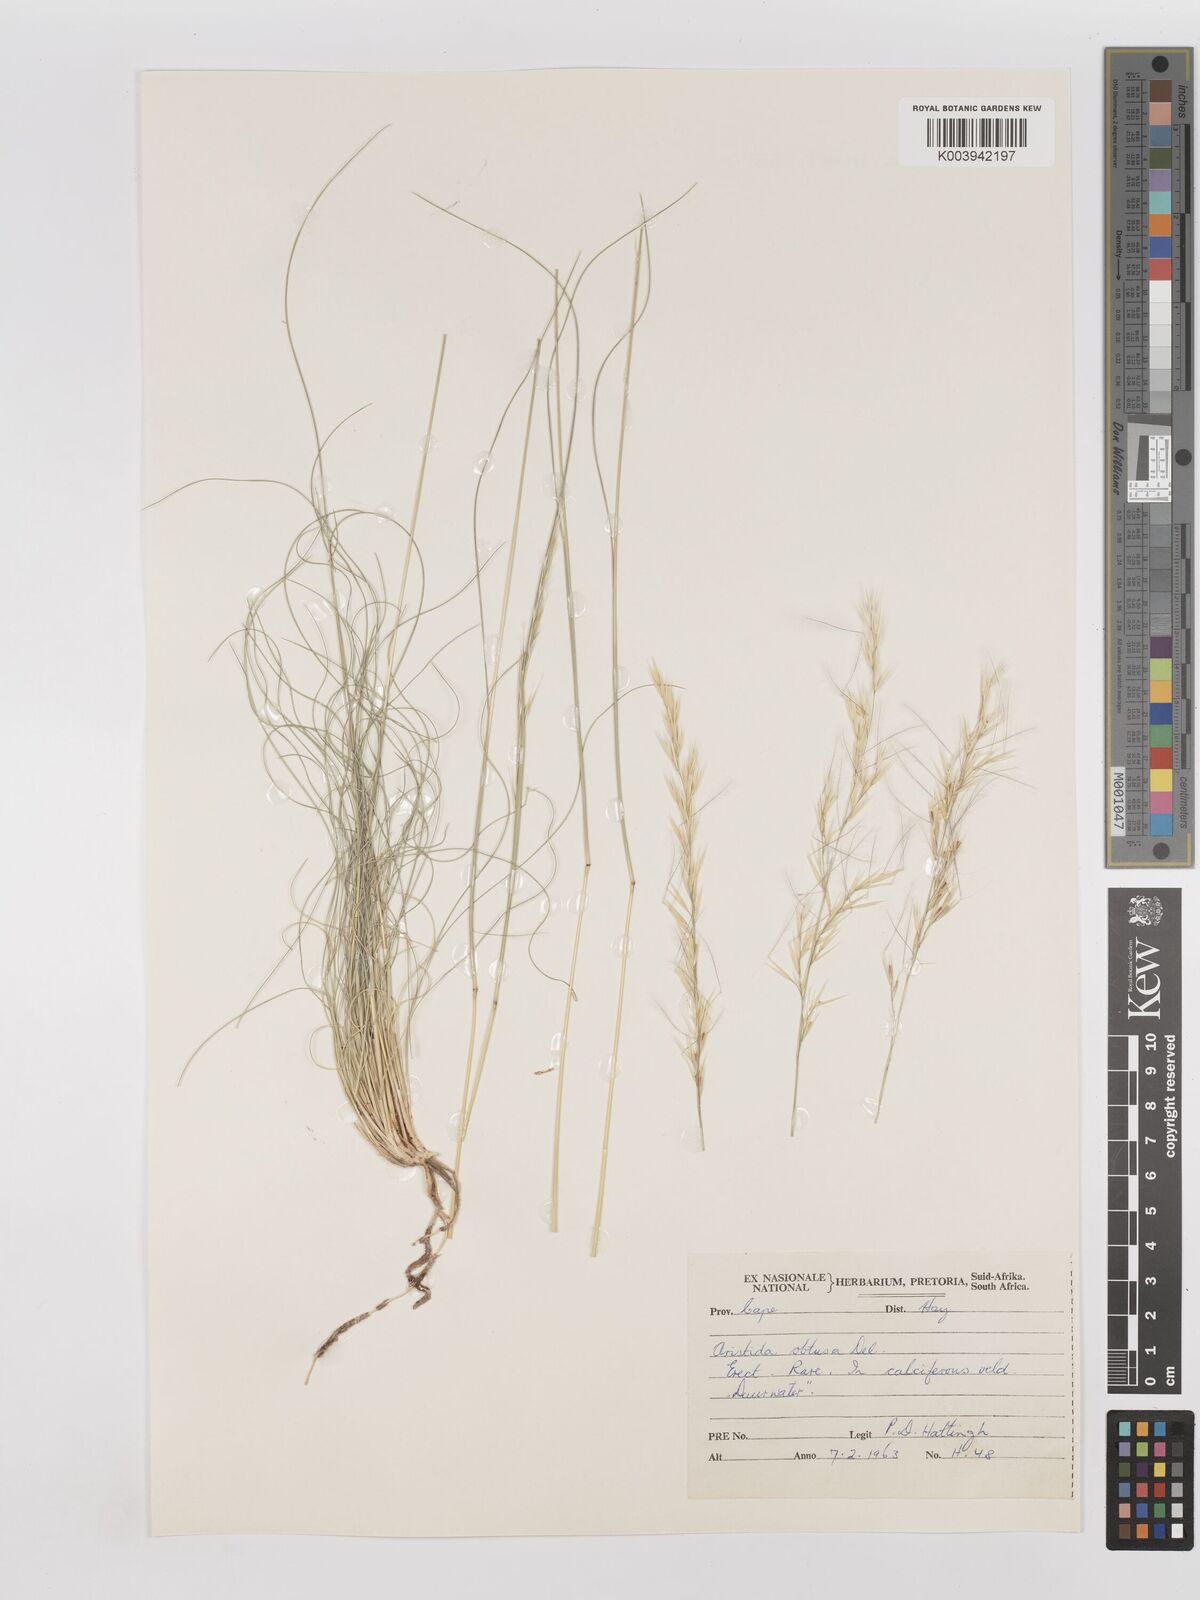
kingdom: Plantae
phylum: Tracheophyta
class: Liliopsida
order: Poales
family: Poaceae
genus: Stipagrostis
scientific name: Stipagrostis obtusa
